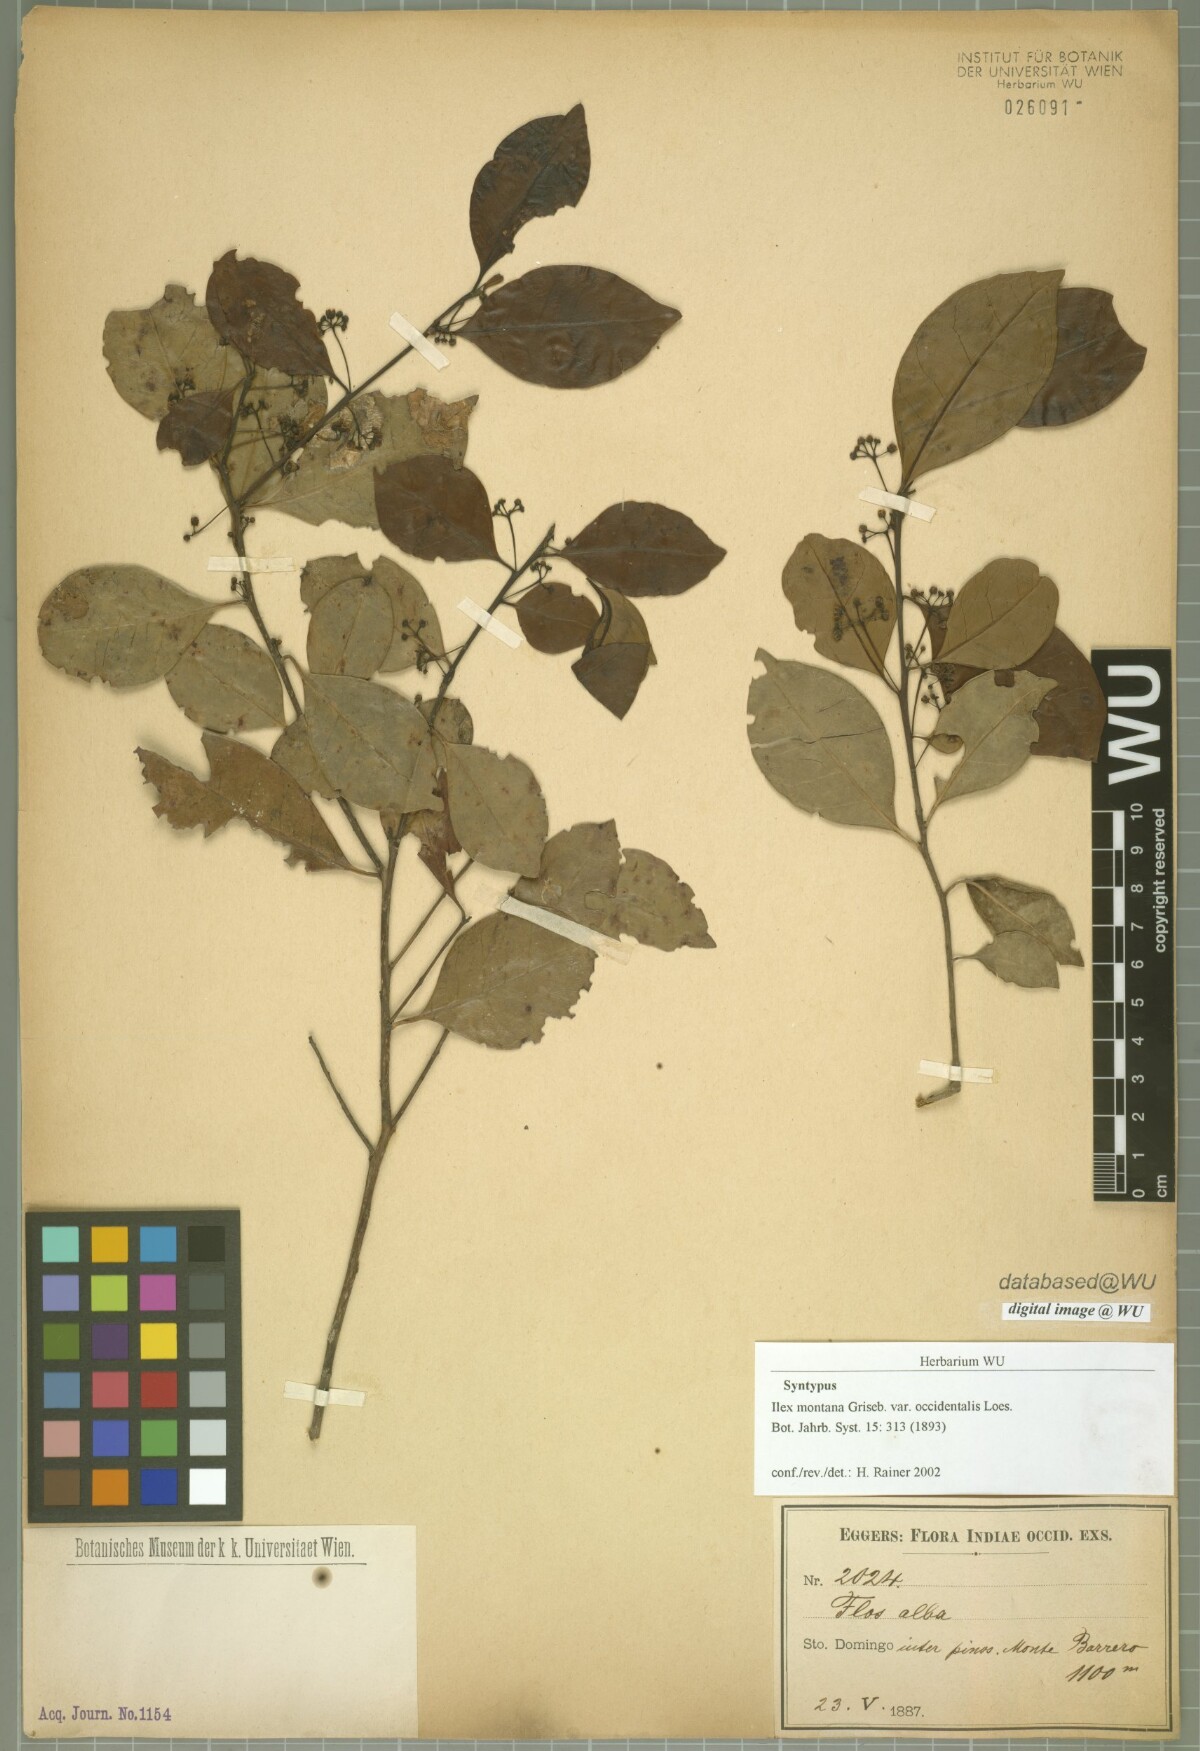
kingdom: Plantae
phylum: Tracheophyta
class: Magnoliopsida
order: Aquifoliales
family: Aquifoliaceae
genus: Ilex
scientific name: Ilex macfadyenii
